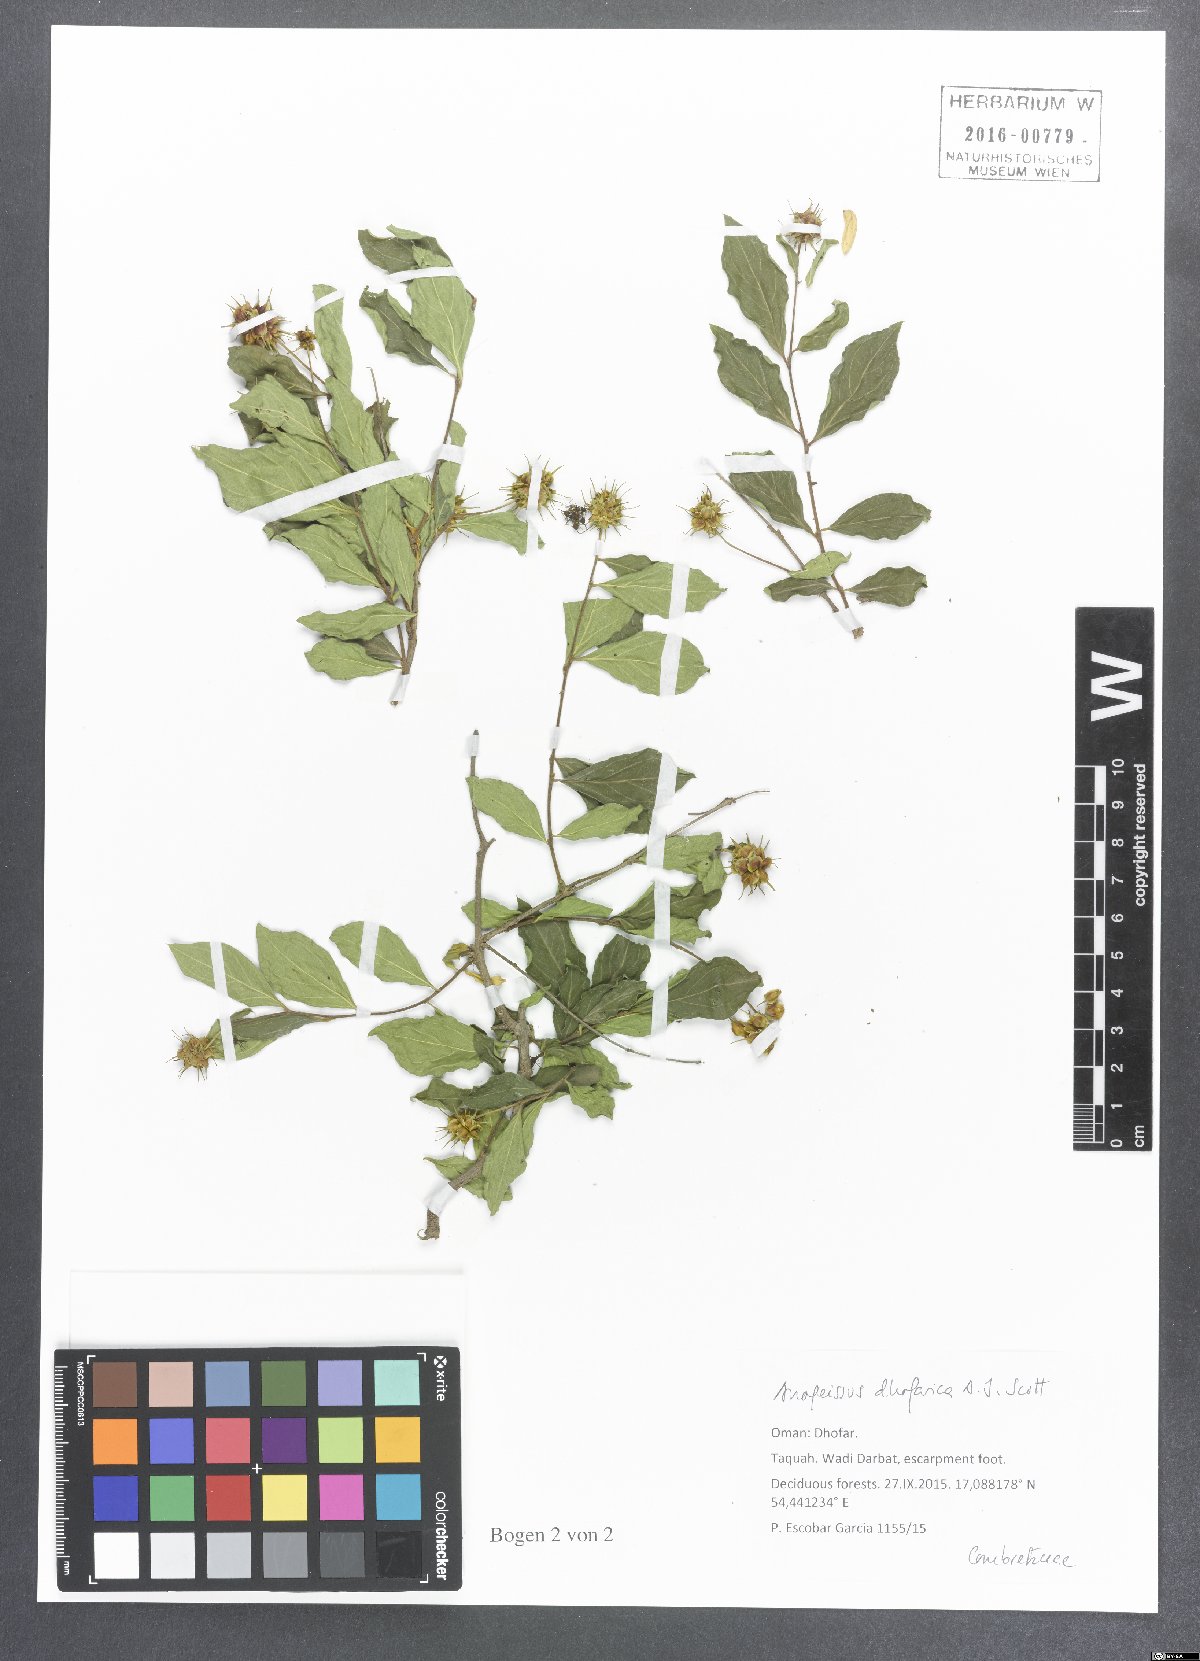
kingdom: Plantae
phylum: Tracheophyta
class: Magnoliopsida
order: Myrtales
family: Combretaceae
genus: Terminalia
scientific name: Terminalia dhofarica
